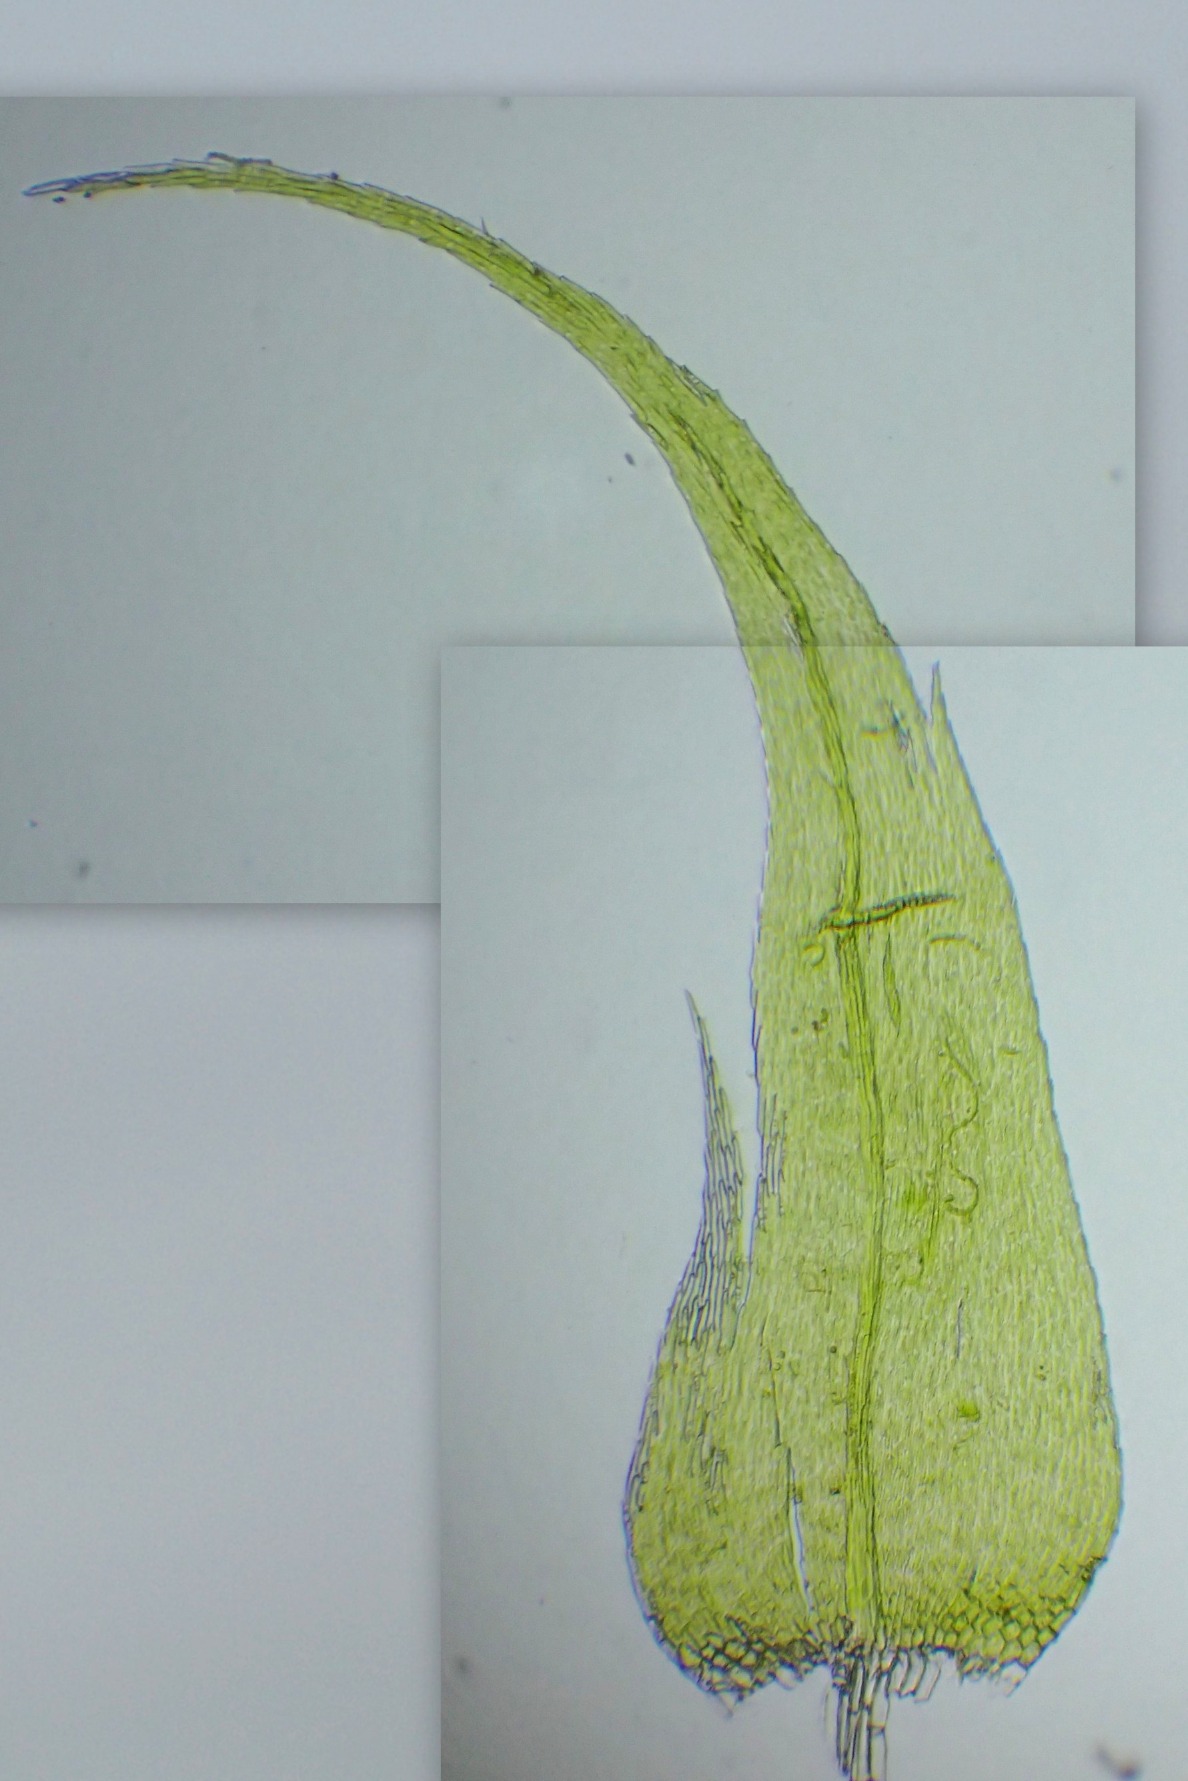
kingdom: Plantae
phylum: Bryophyta
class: Bryopsida
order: Hypnales
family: Scorpidiaceae
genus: Sanionia
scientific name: Sanionia uncinata
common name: Stribet krogblad
